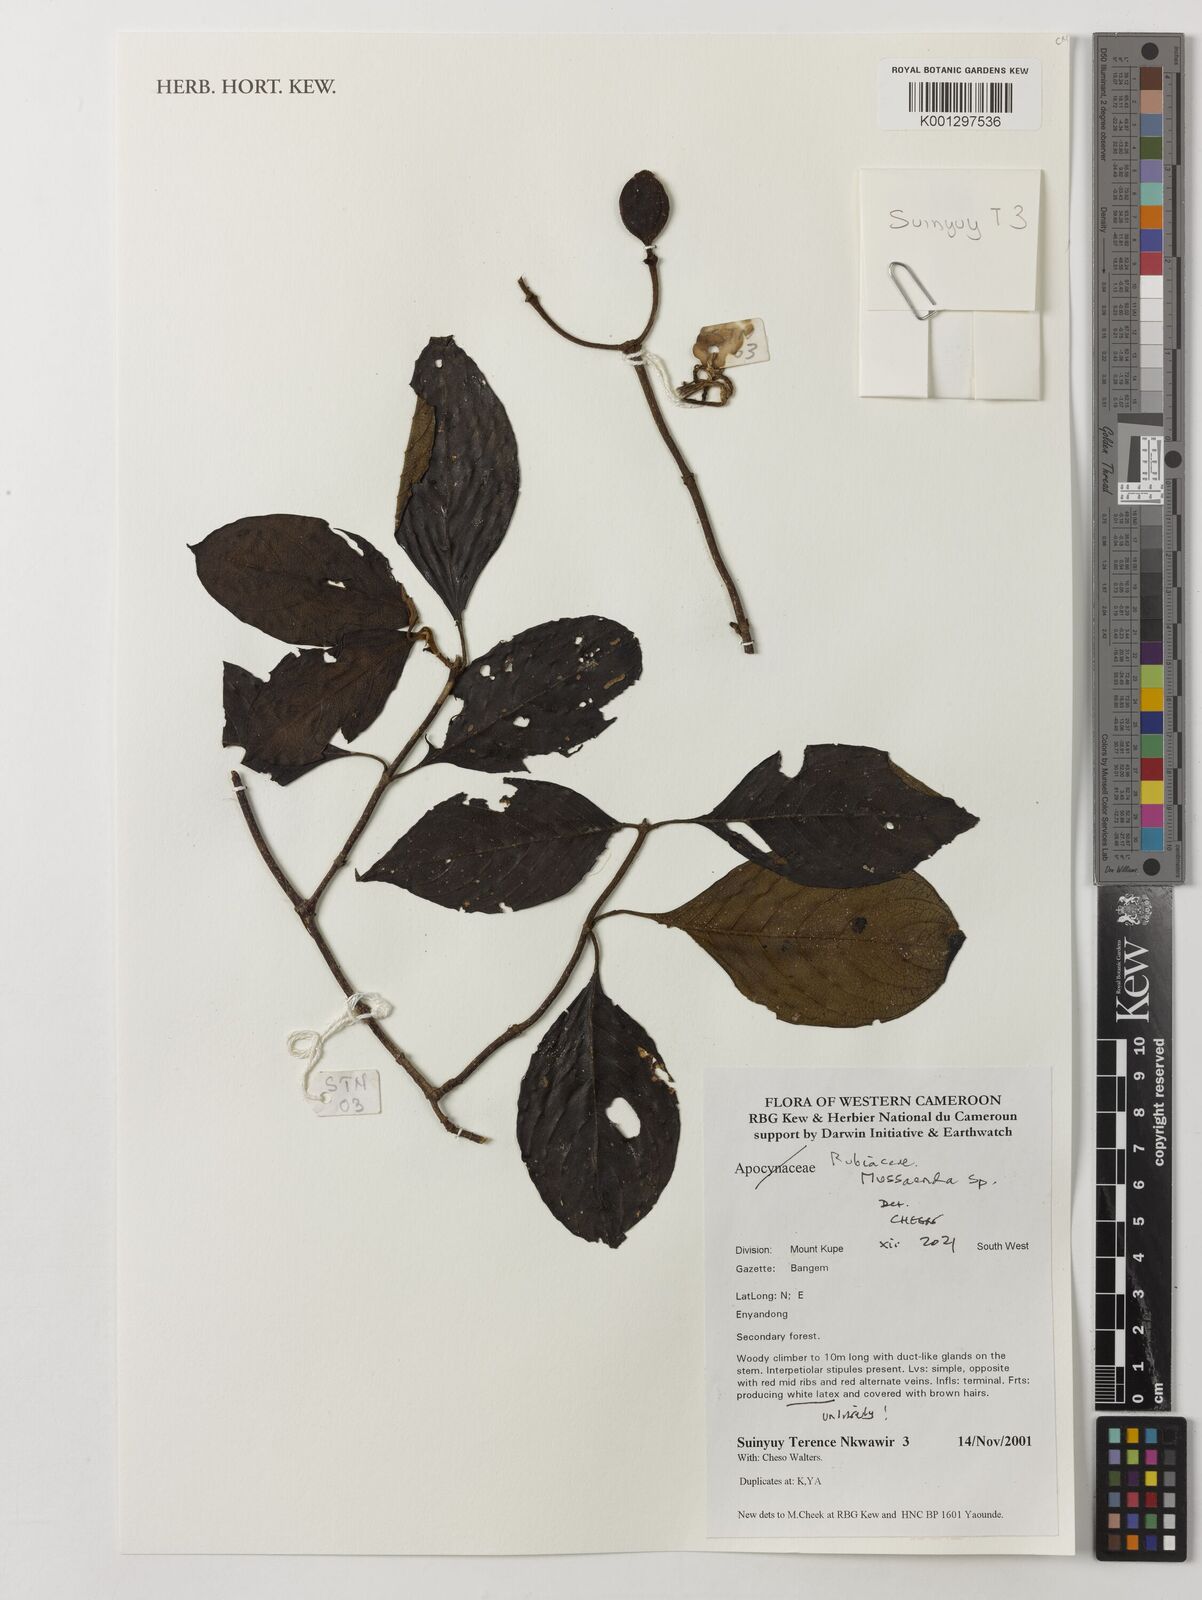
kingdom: Plantae
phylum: Tracheophyta
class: Magnoliopsida
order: Gentianales
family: Rubiaceae
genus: Mussaenda
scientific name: Mussaenda
